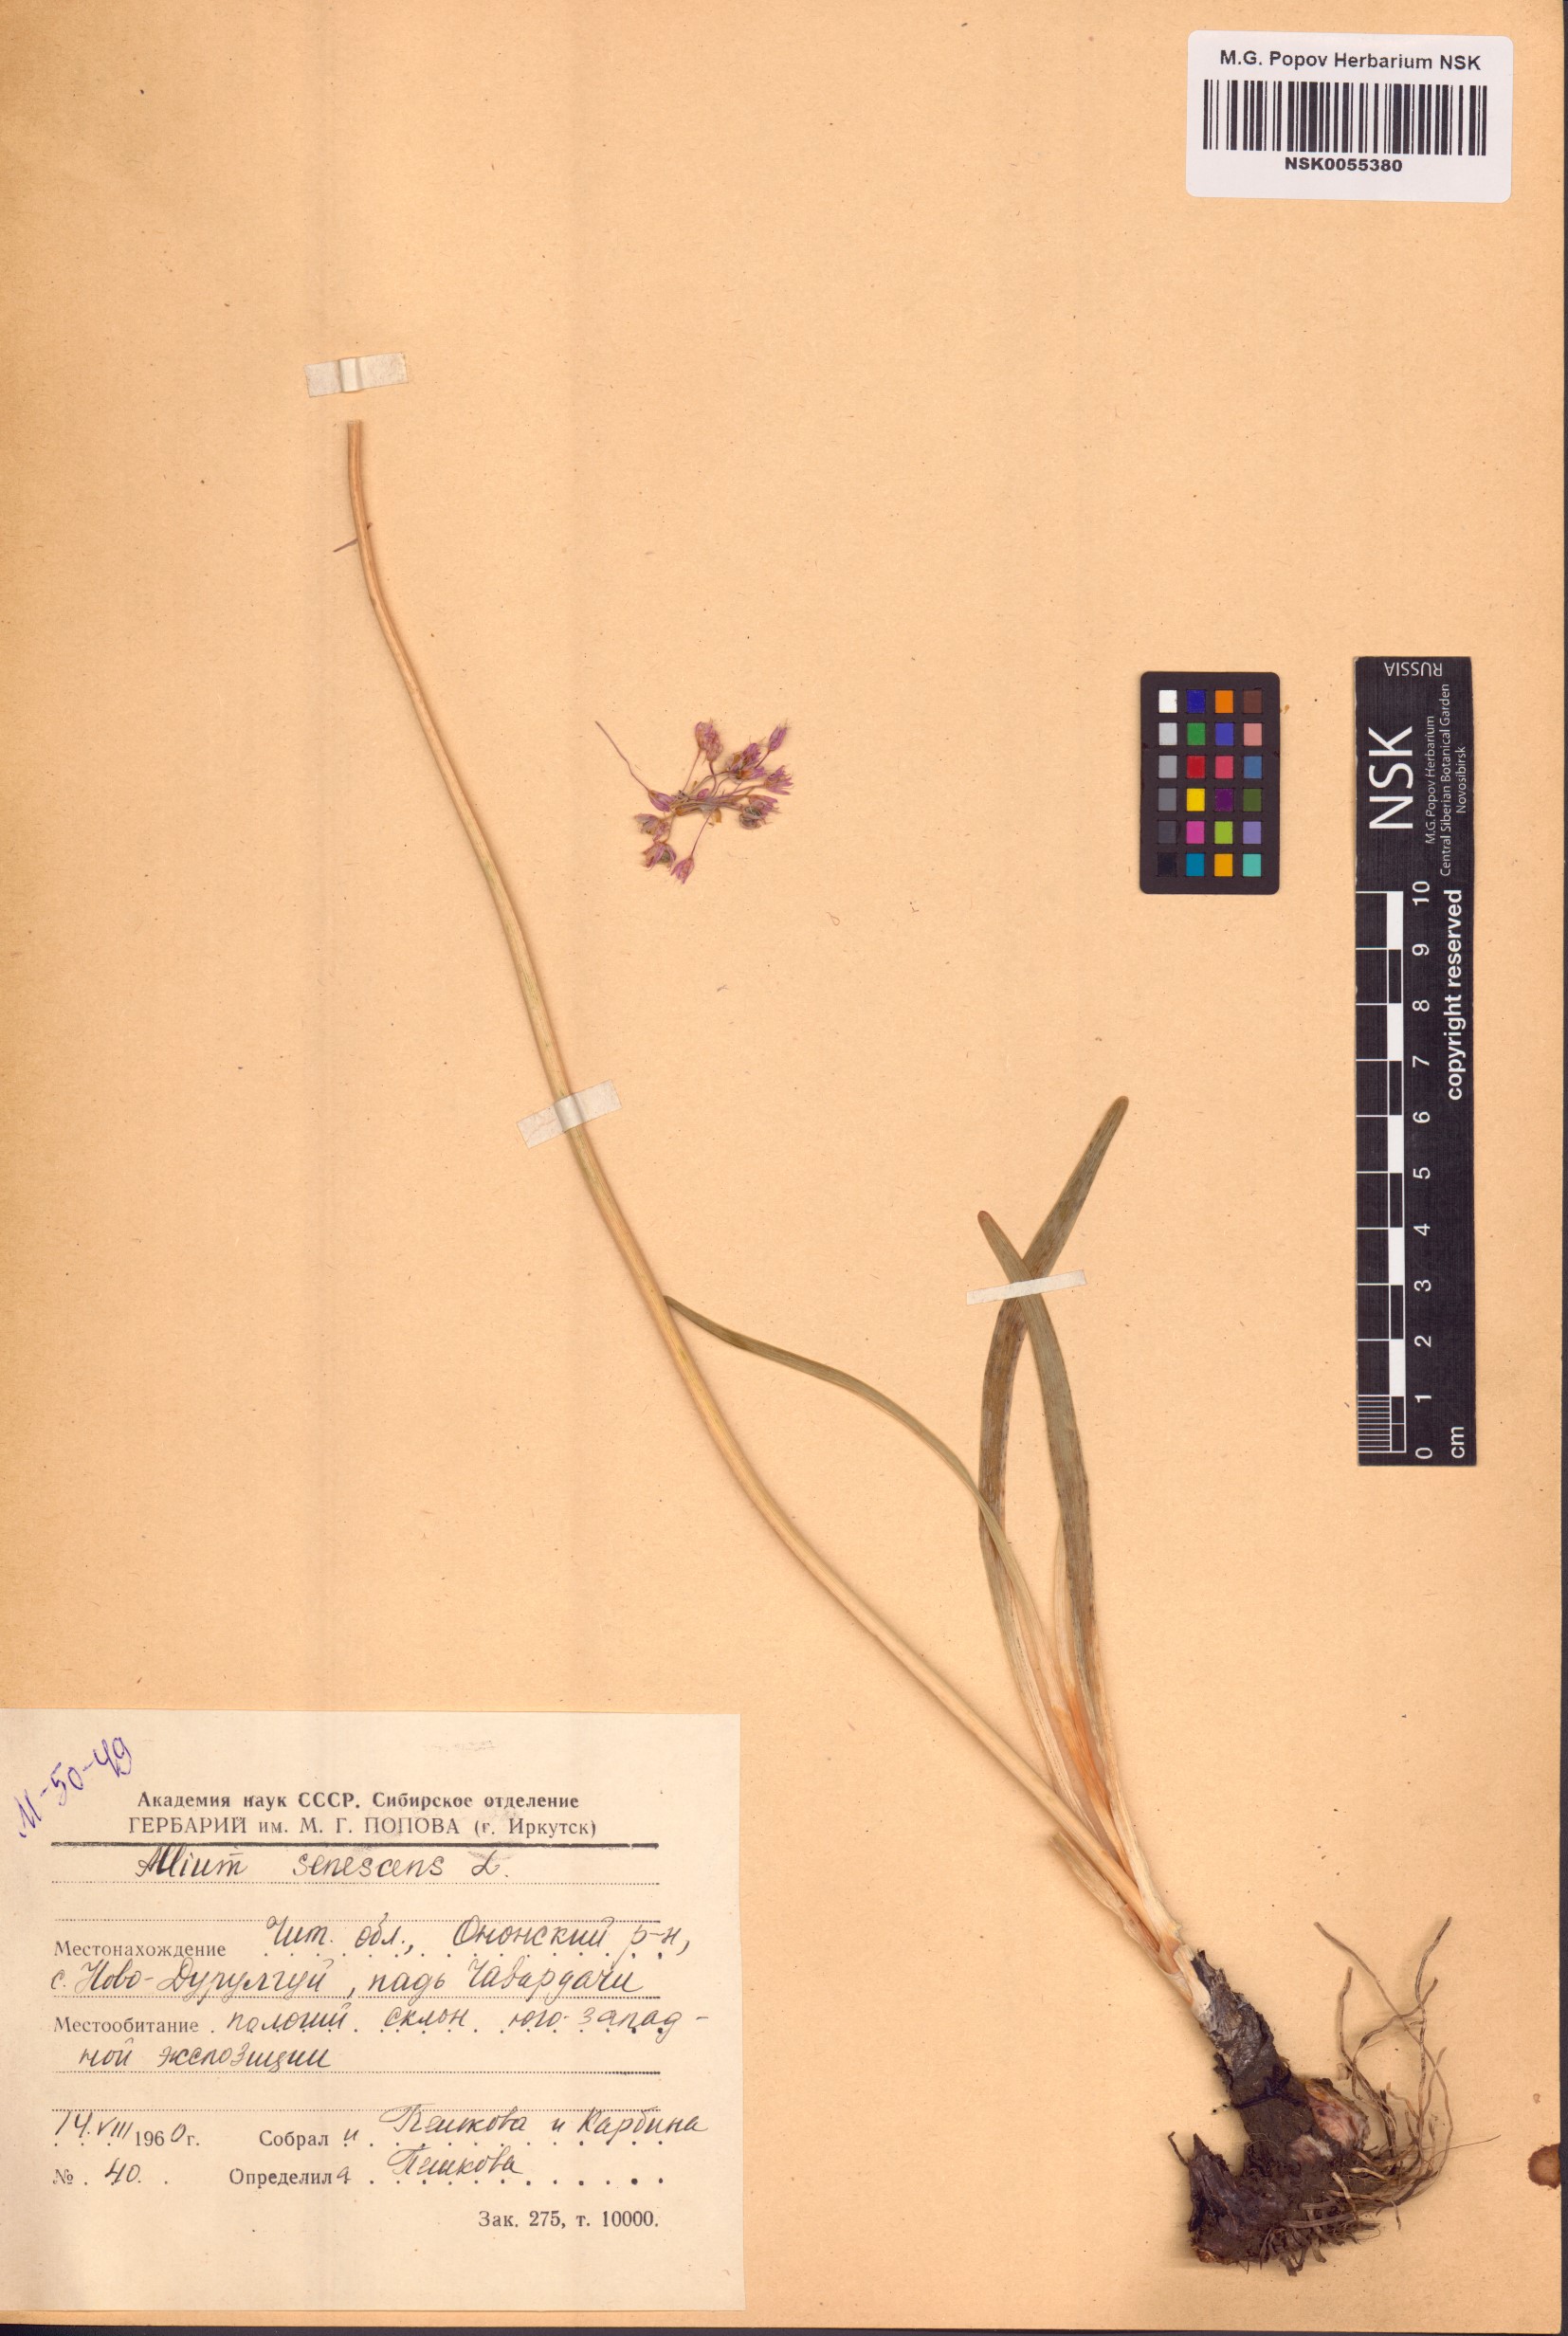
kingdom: Plantae
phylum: Tracheophyta
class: Liliopsida
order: Asparagales
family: Amaryllidaceae
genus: Allium
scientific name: Allium senescens
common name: German garlic
